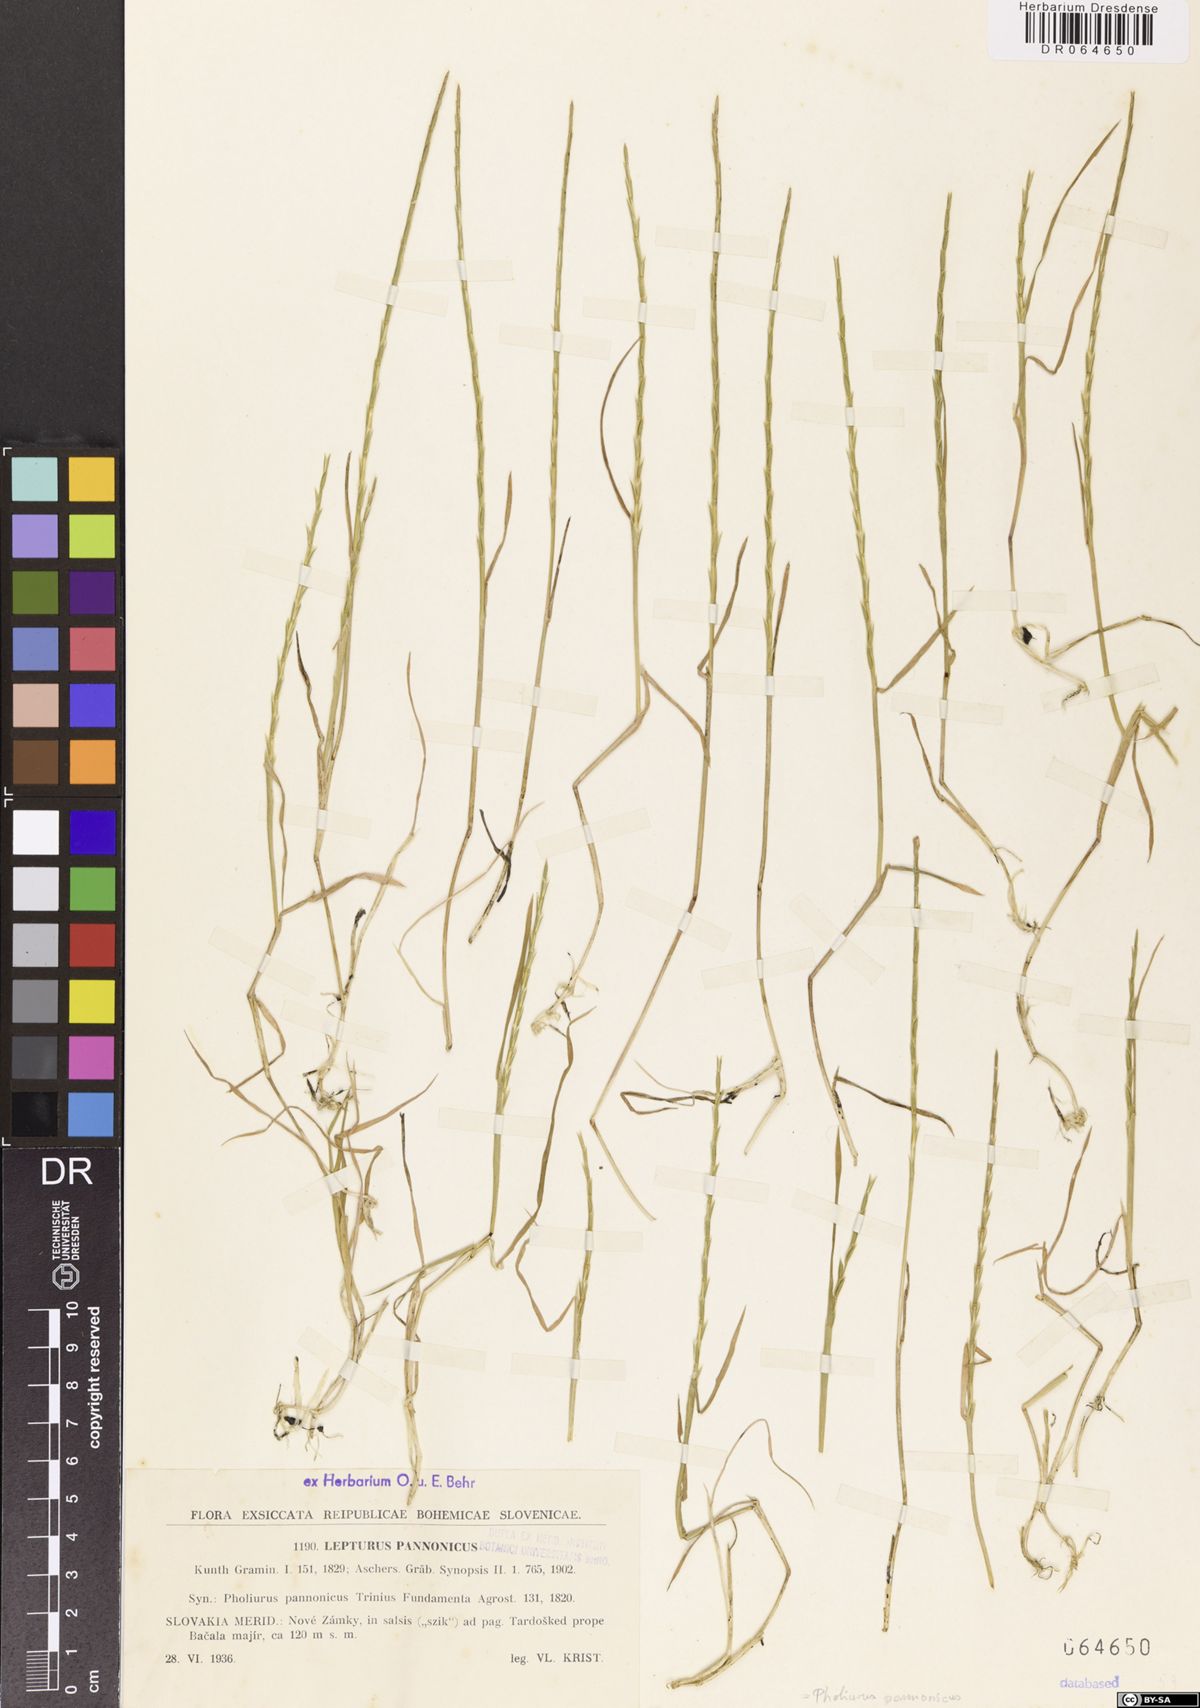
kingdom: Plantae
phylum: Tracheophyta
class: Liliopsida
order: Poales
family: Poaceae
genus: Pholiurus
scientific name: Pholiurus pannonicus
